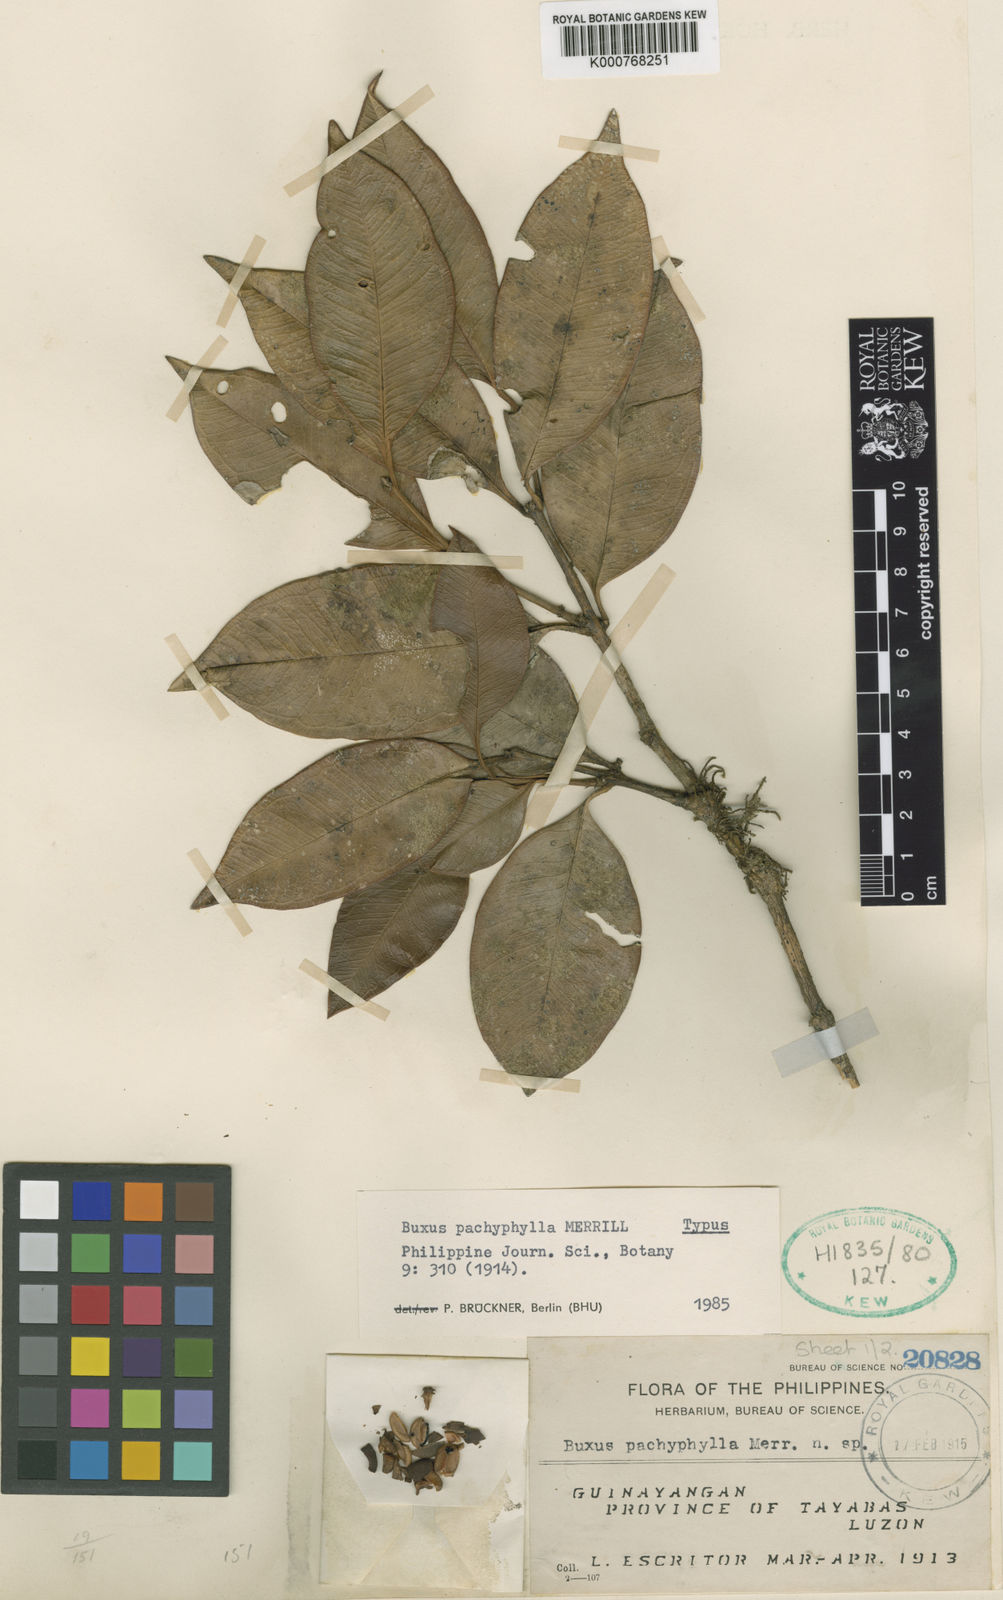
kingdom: Plantae
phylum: Tracheophyta
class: Magnoliopsida
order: Buxales
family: Buxaceae
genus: Buxus
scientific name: Buxus pachyphylla
